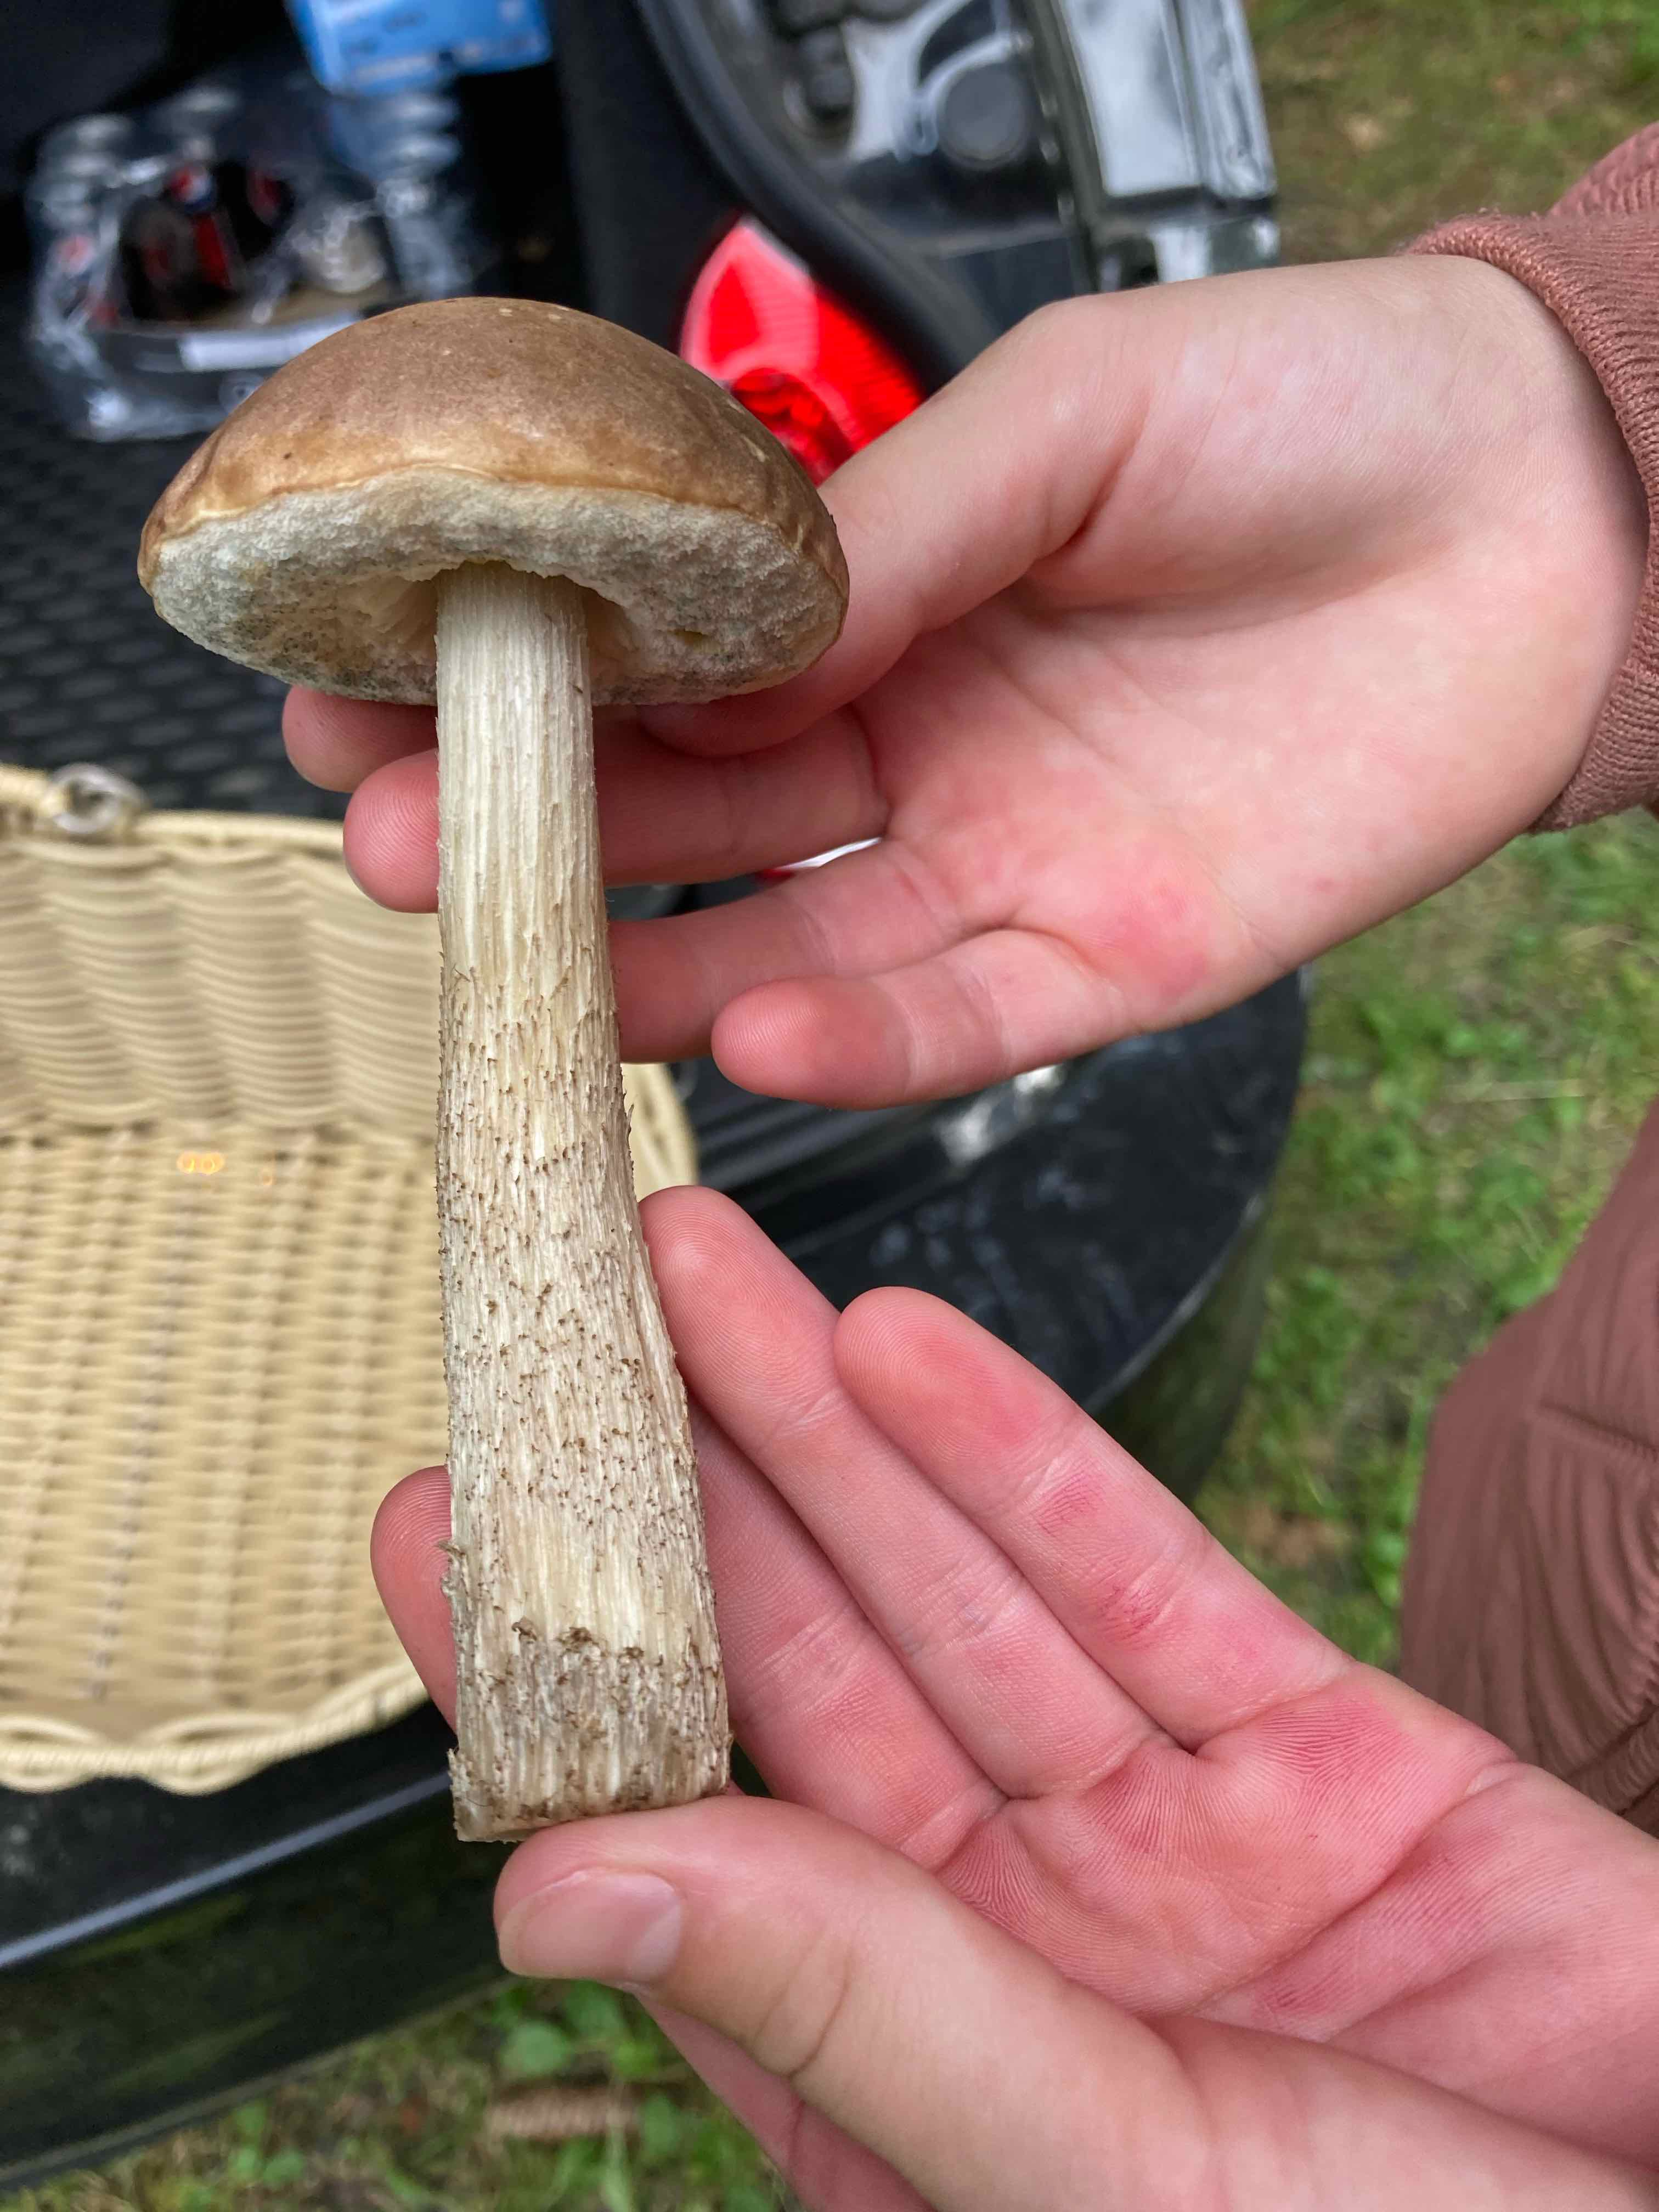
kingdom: Fungi
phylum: Basidiomycota
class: Agaricomycetes
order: Boletales
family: Boletaceae
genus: Leccinum
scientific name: Leccinum
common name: skælrørhat
